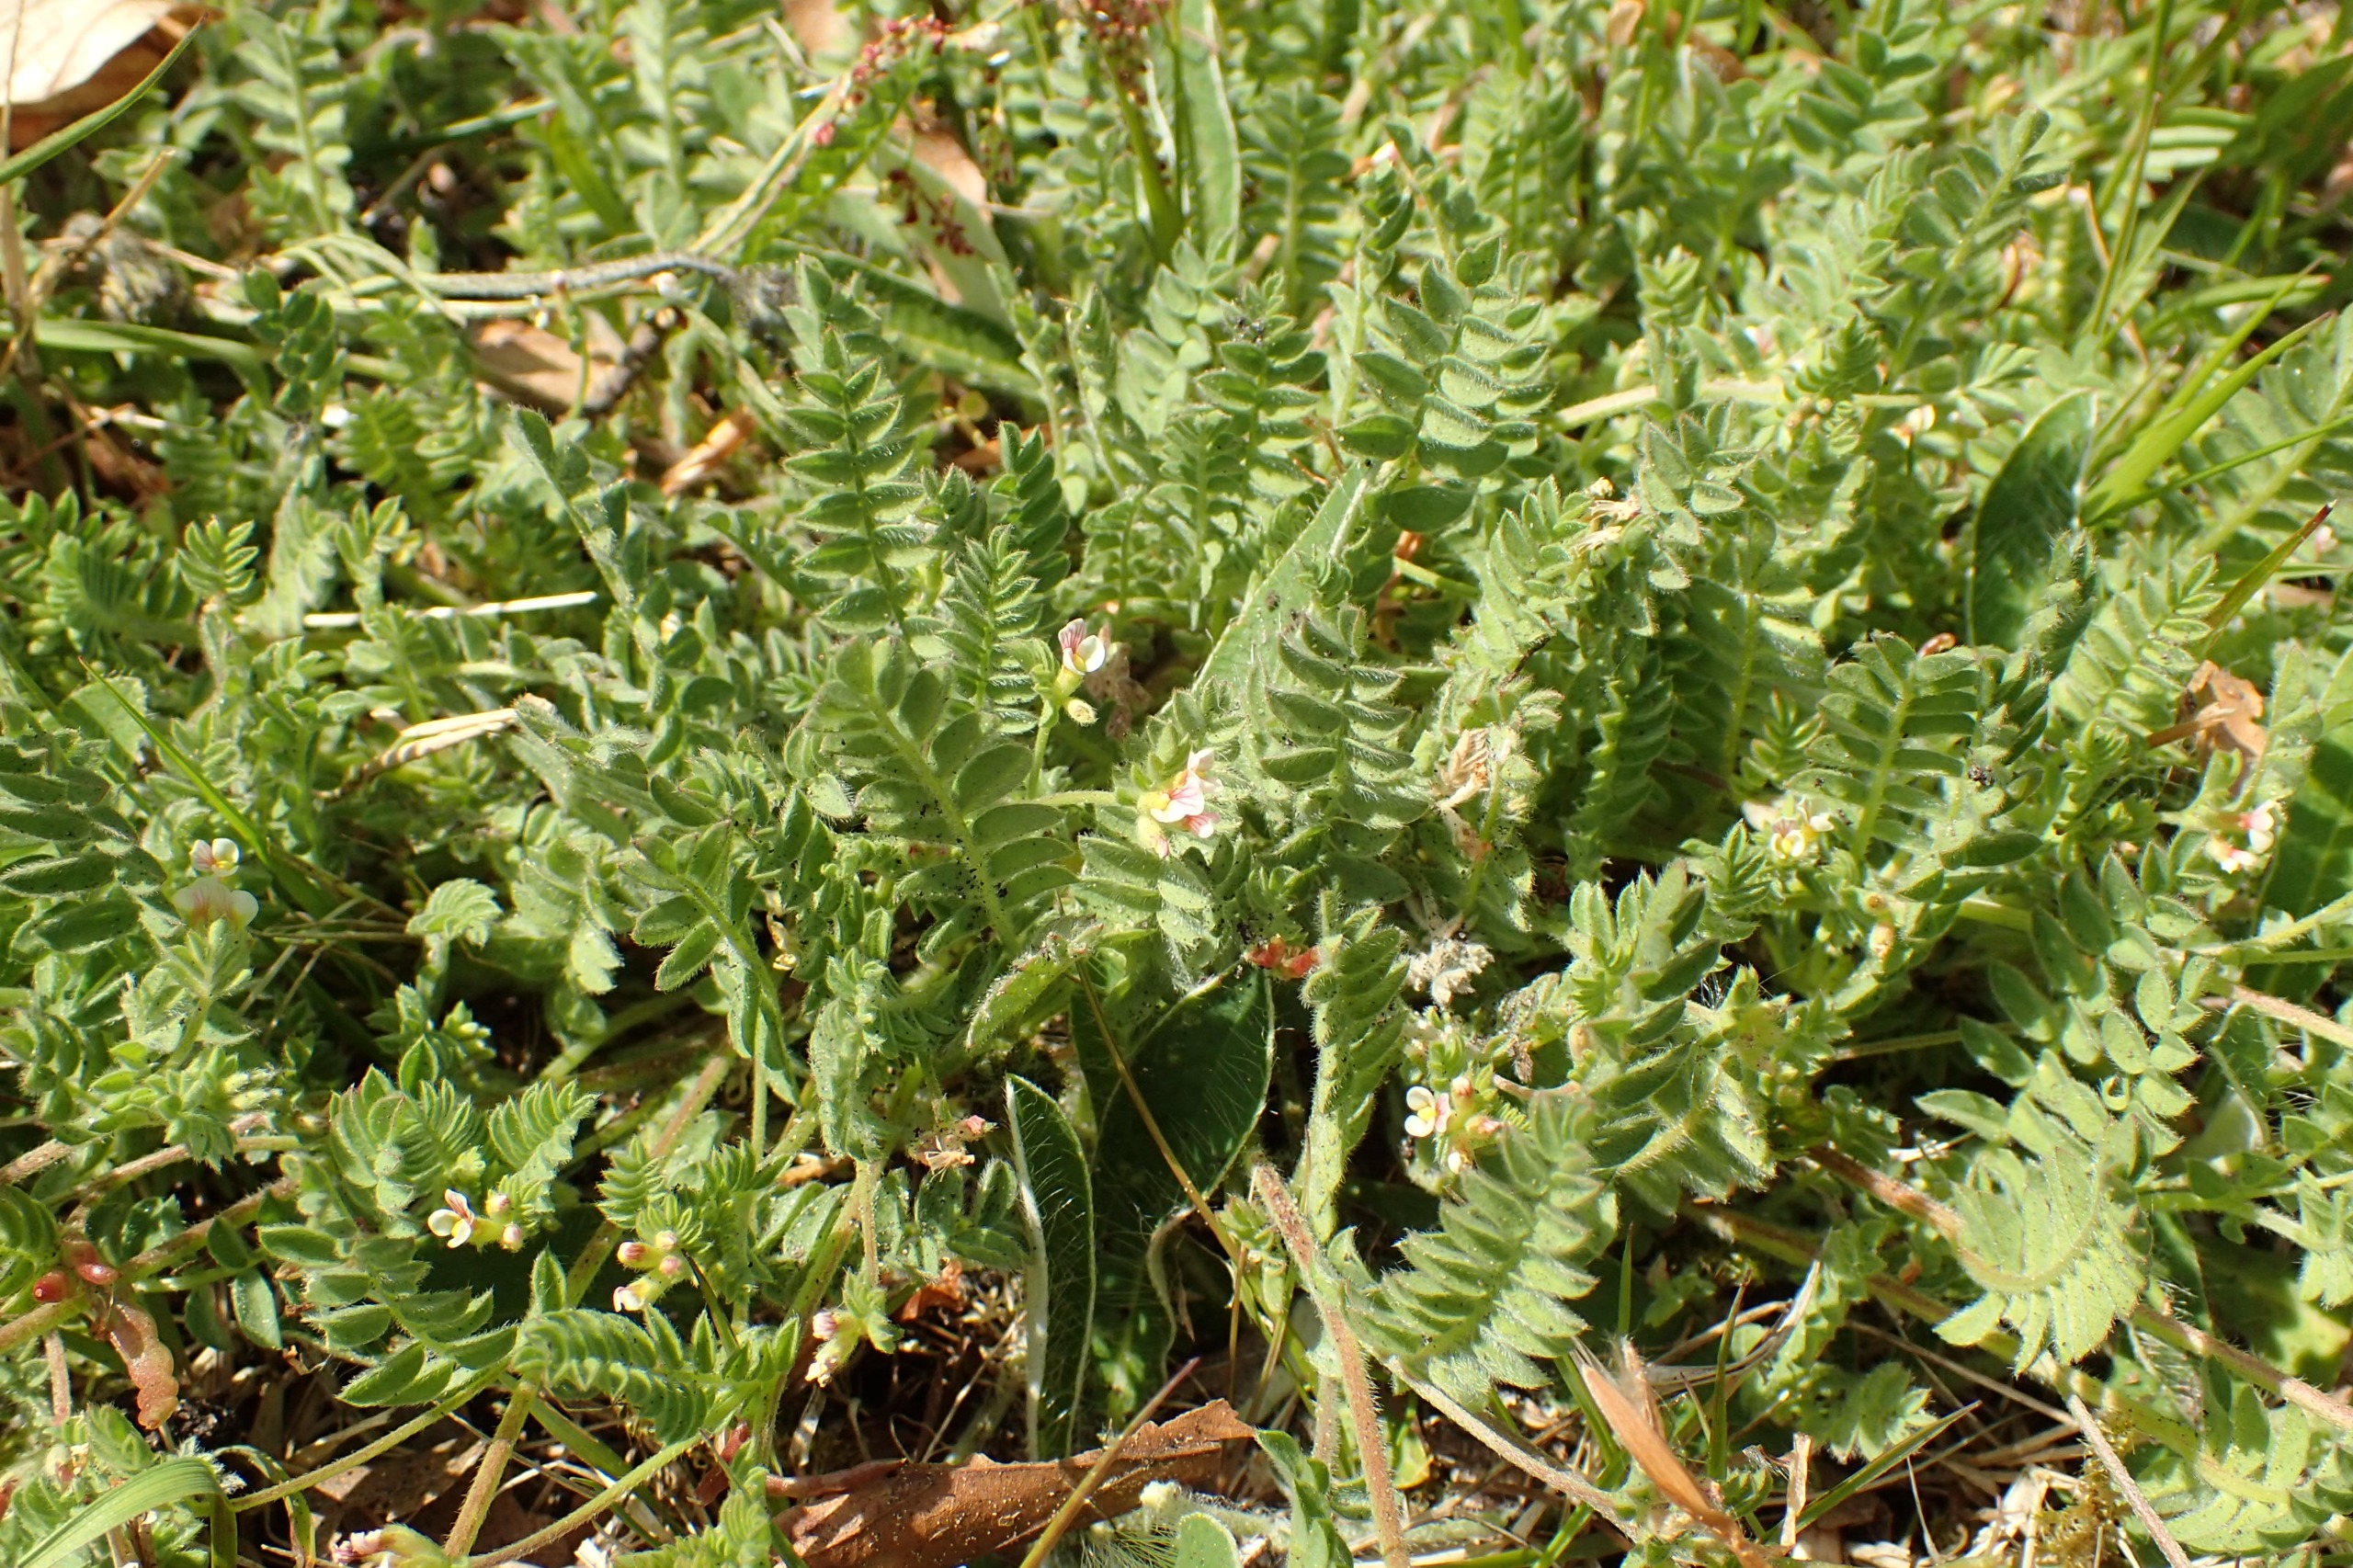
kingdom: Plantae
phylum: Tracheophyta
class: Magnoliopsida
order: Fabales
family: Fabaceae
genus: Ornithopus
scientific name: Ornithopus perpusillus
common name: Liden fugleklo
